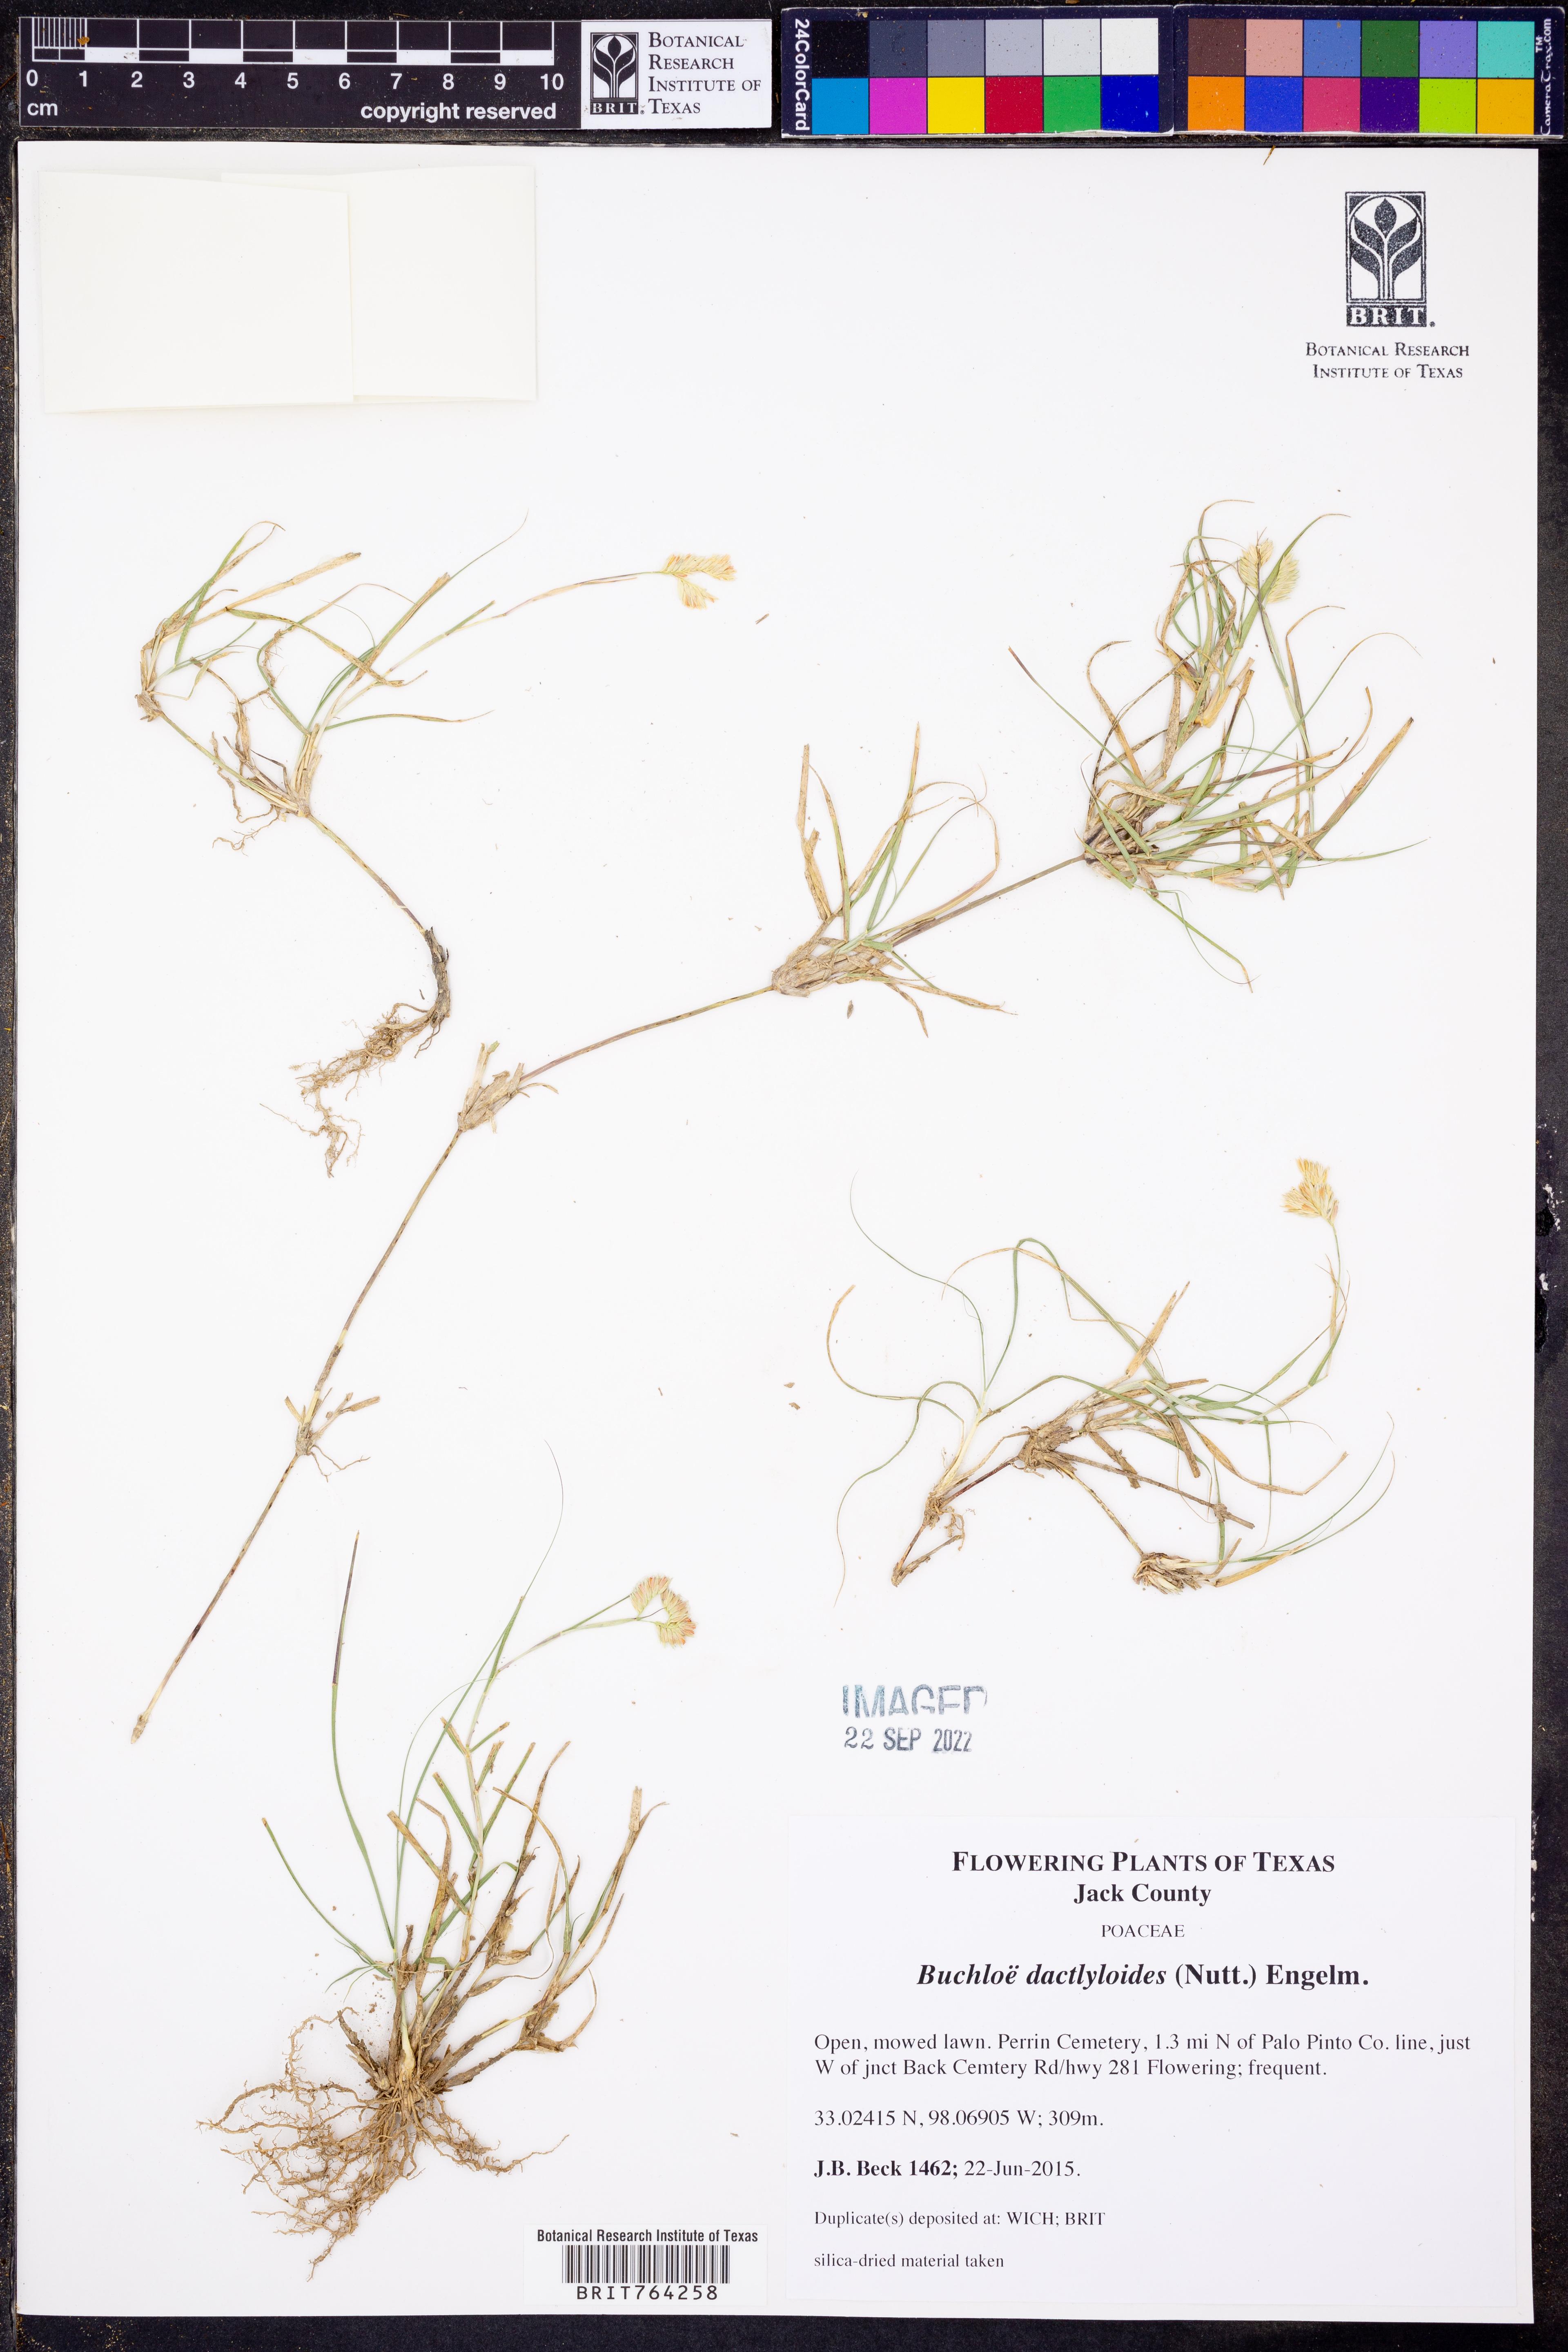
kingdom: Plantae
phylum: Tracheophyta
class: Liliopsida
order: Poales
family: Poaceae
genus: Bouteloua
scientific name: Bouteloua dactyloides
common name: Buffalo grass
